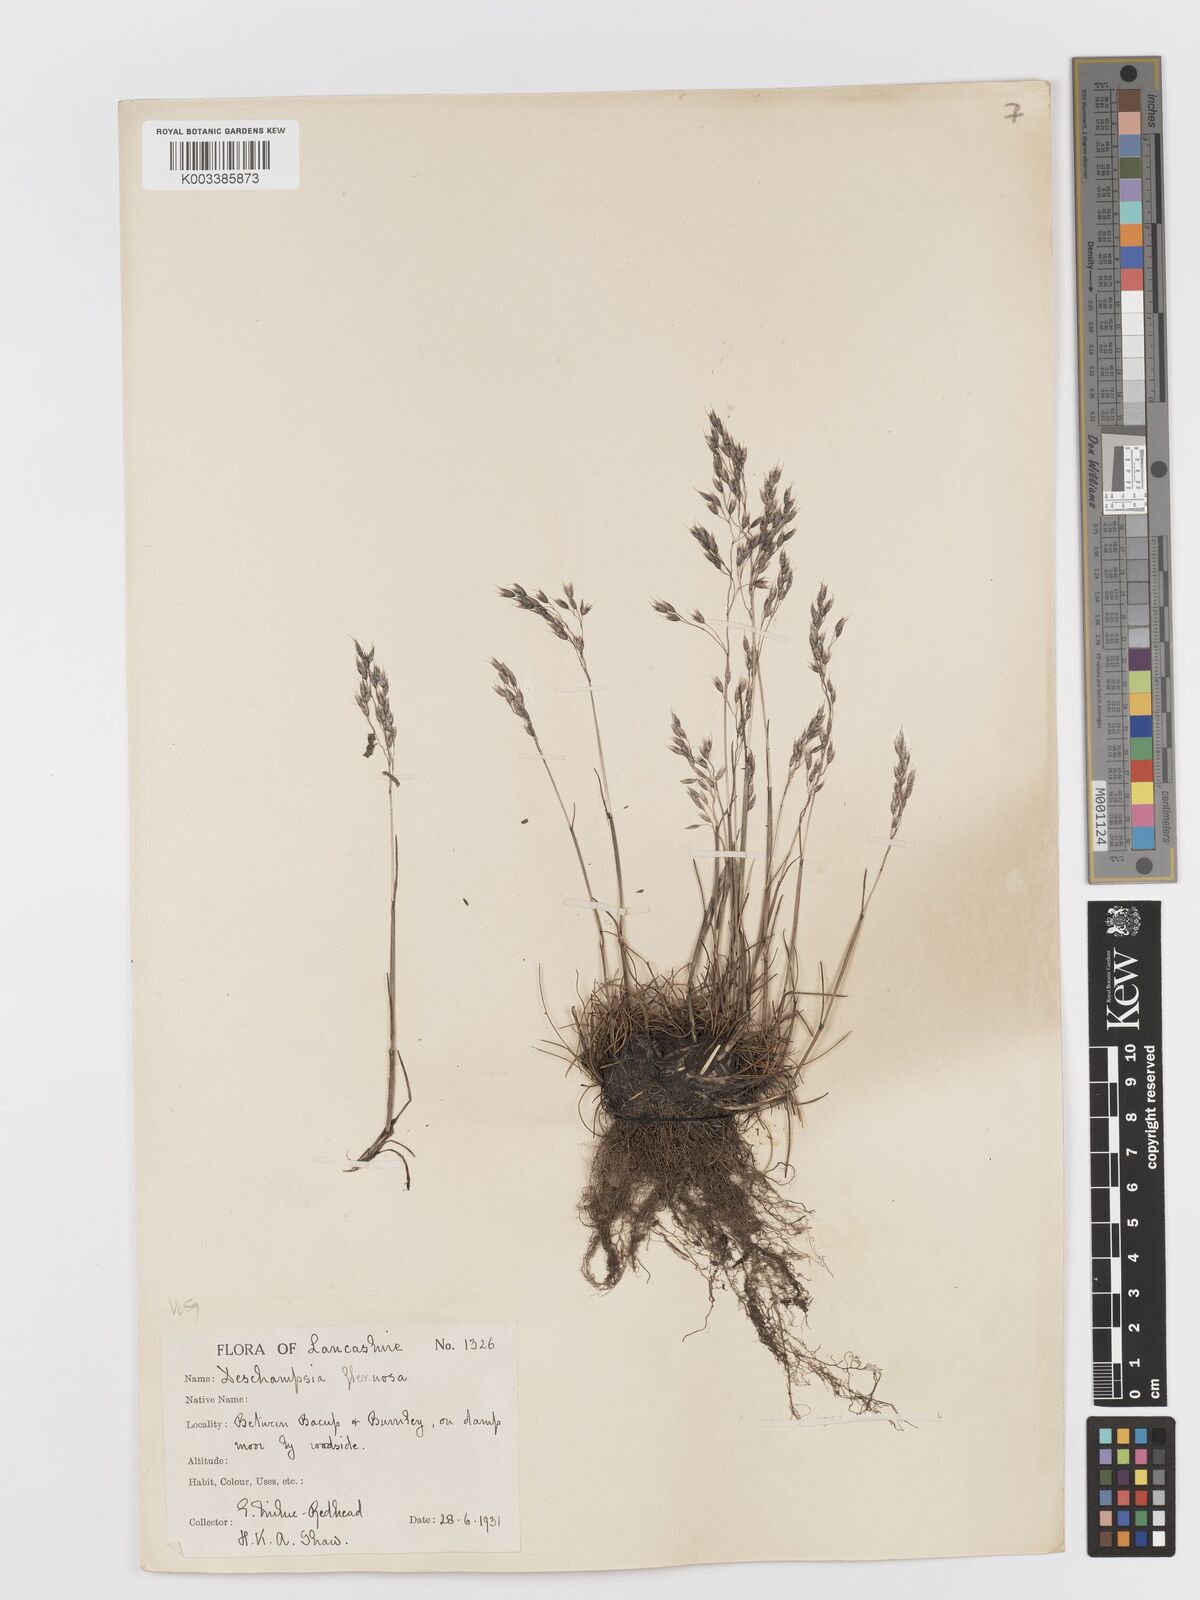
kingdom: Plantae
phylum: Tracheophyta
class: Liliopsida
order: Poales
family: Poaceae
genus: Avenella
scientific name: Avenella flexuosa
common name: Wavy hairgrass
